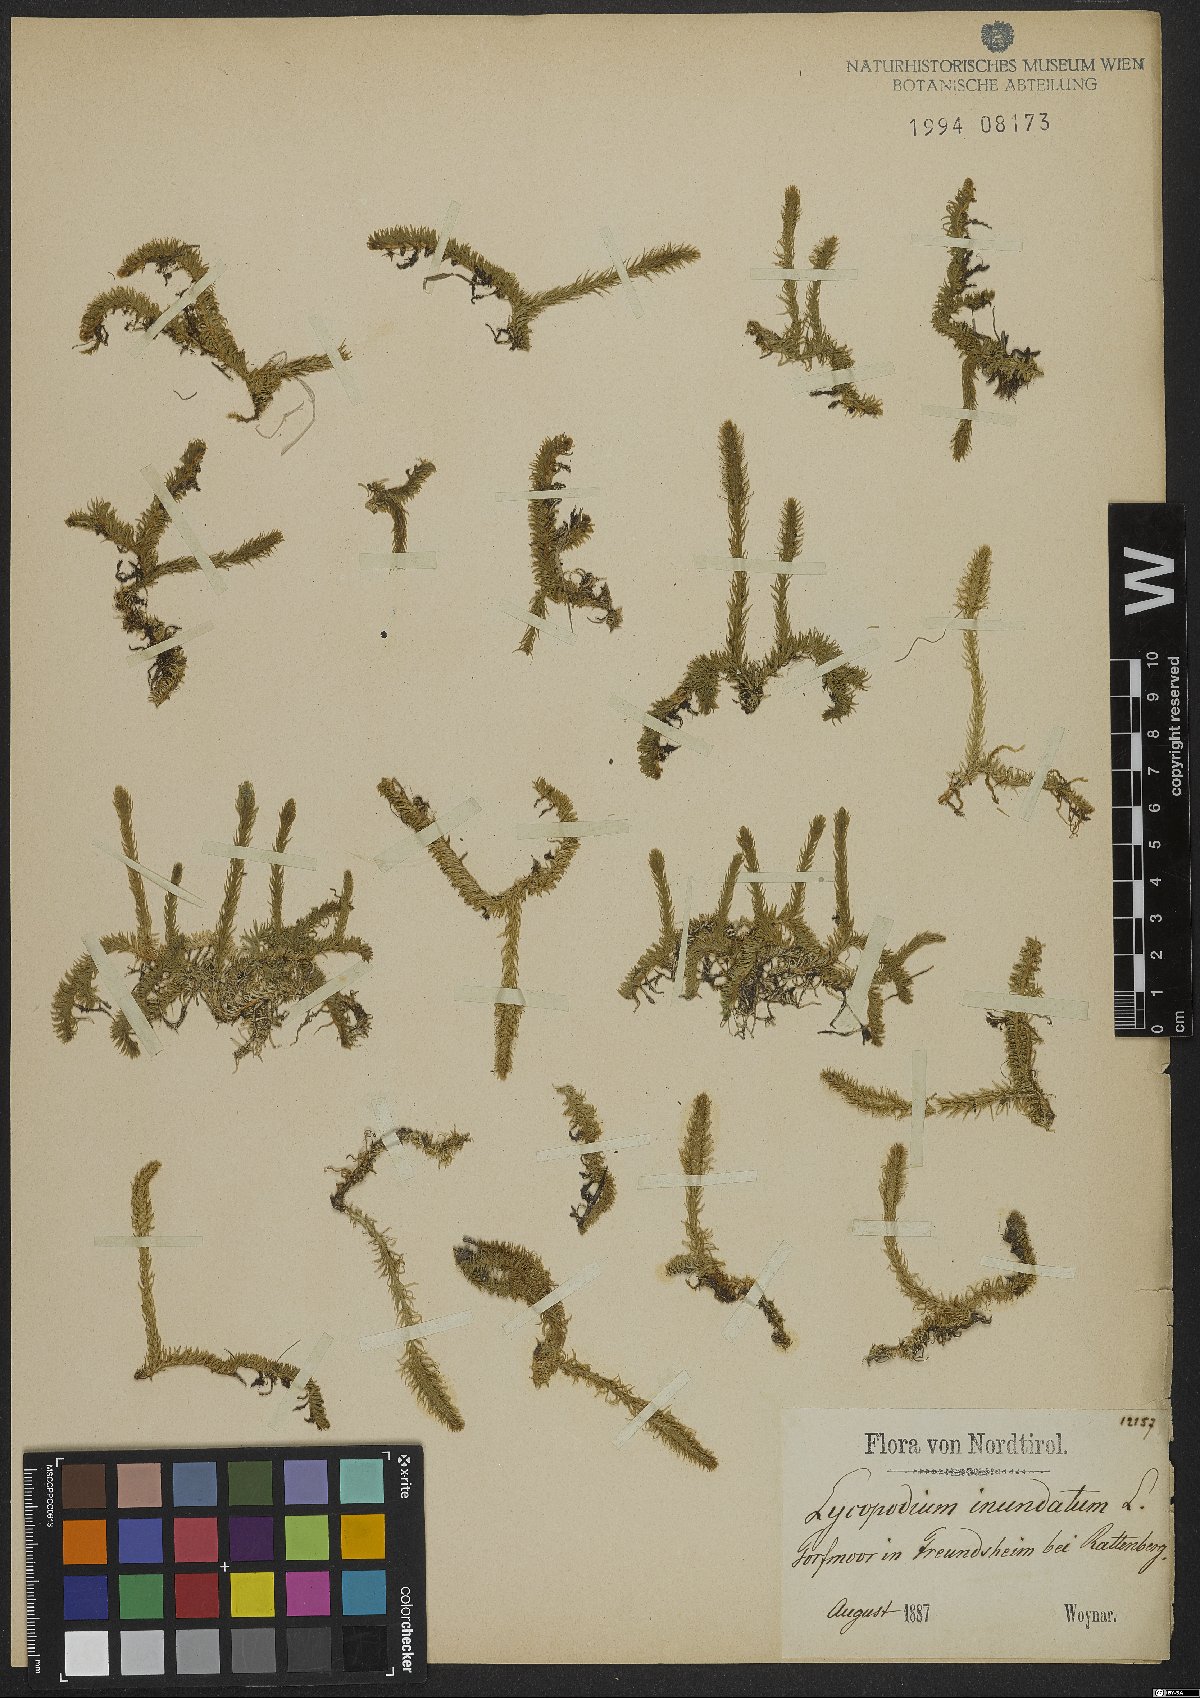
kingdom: Plantae
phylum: Tracheophyta
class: Lycopodiopsida
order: Lycopodiales
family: Lycopodiaceae
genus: Lycopodiella
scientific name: Lycopodiella inundata
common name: Marsh clubmoss
